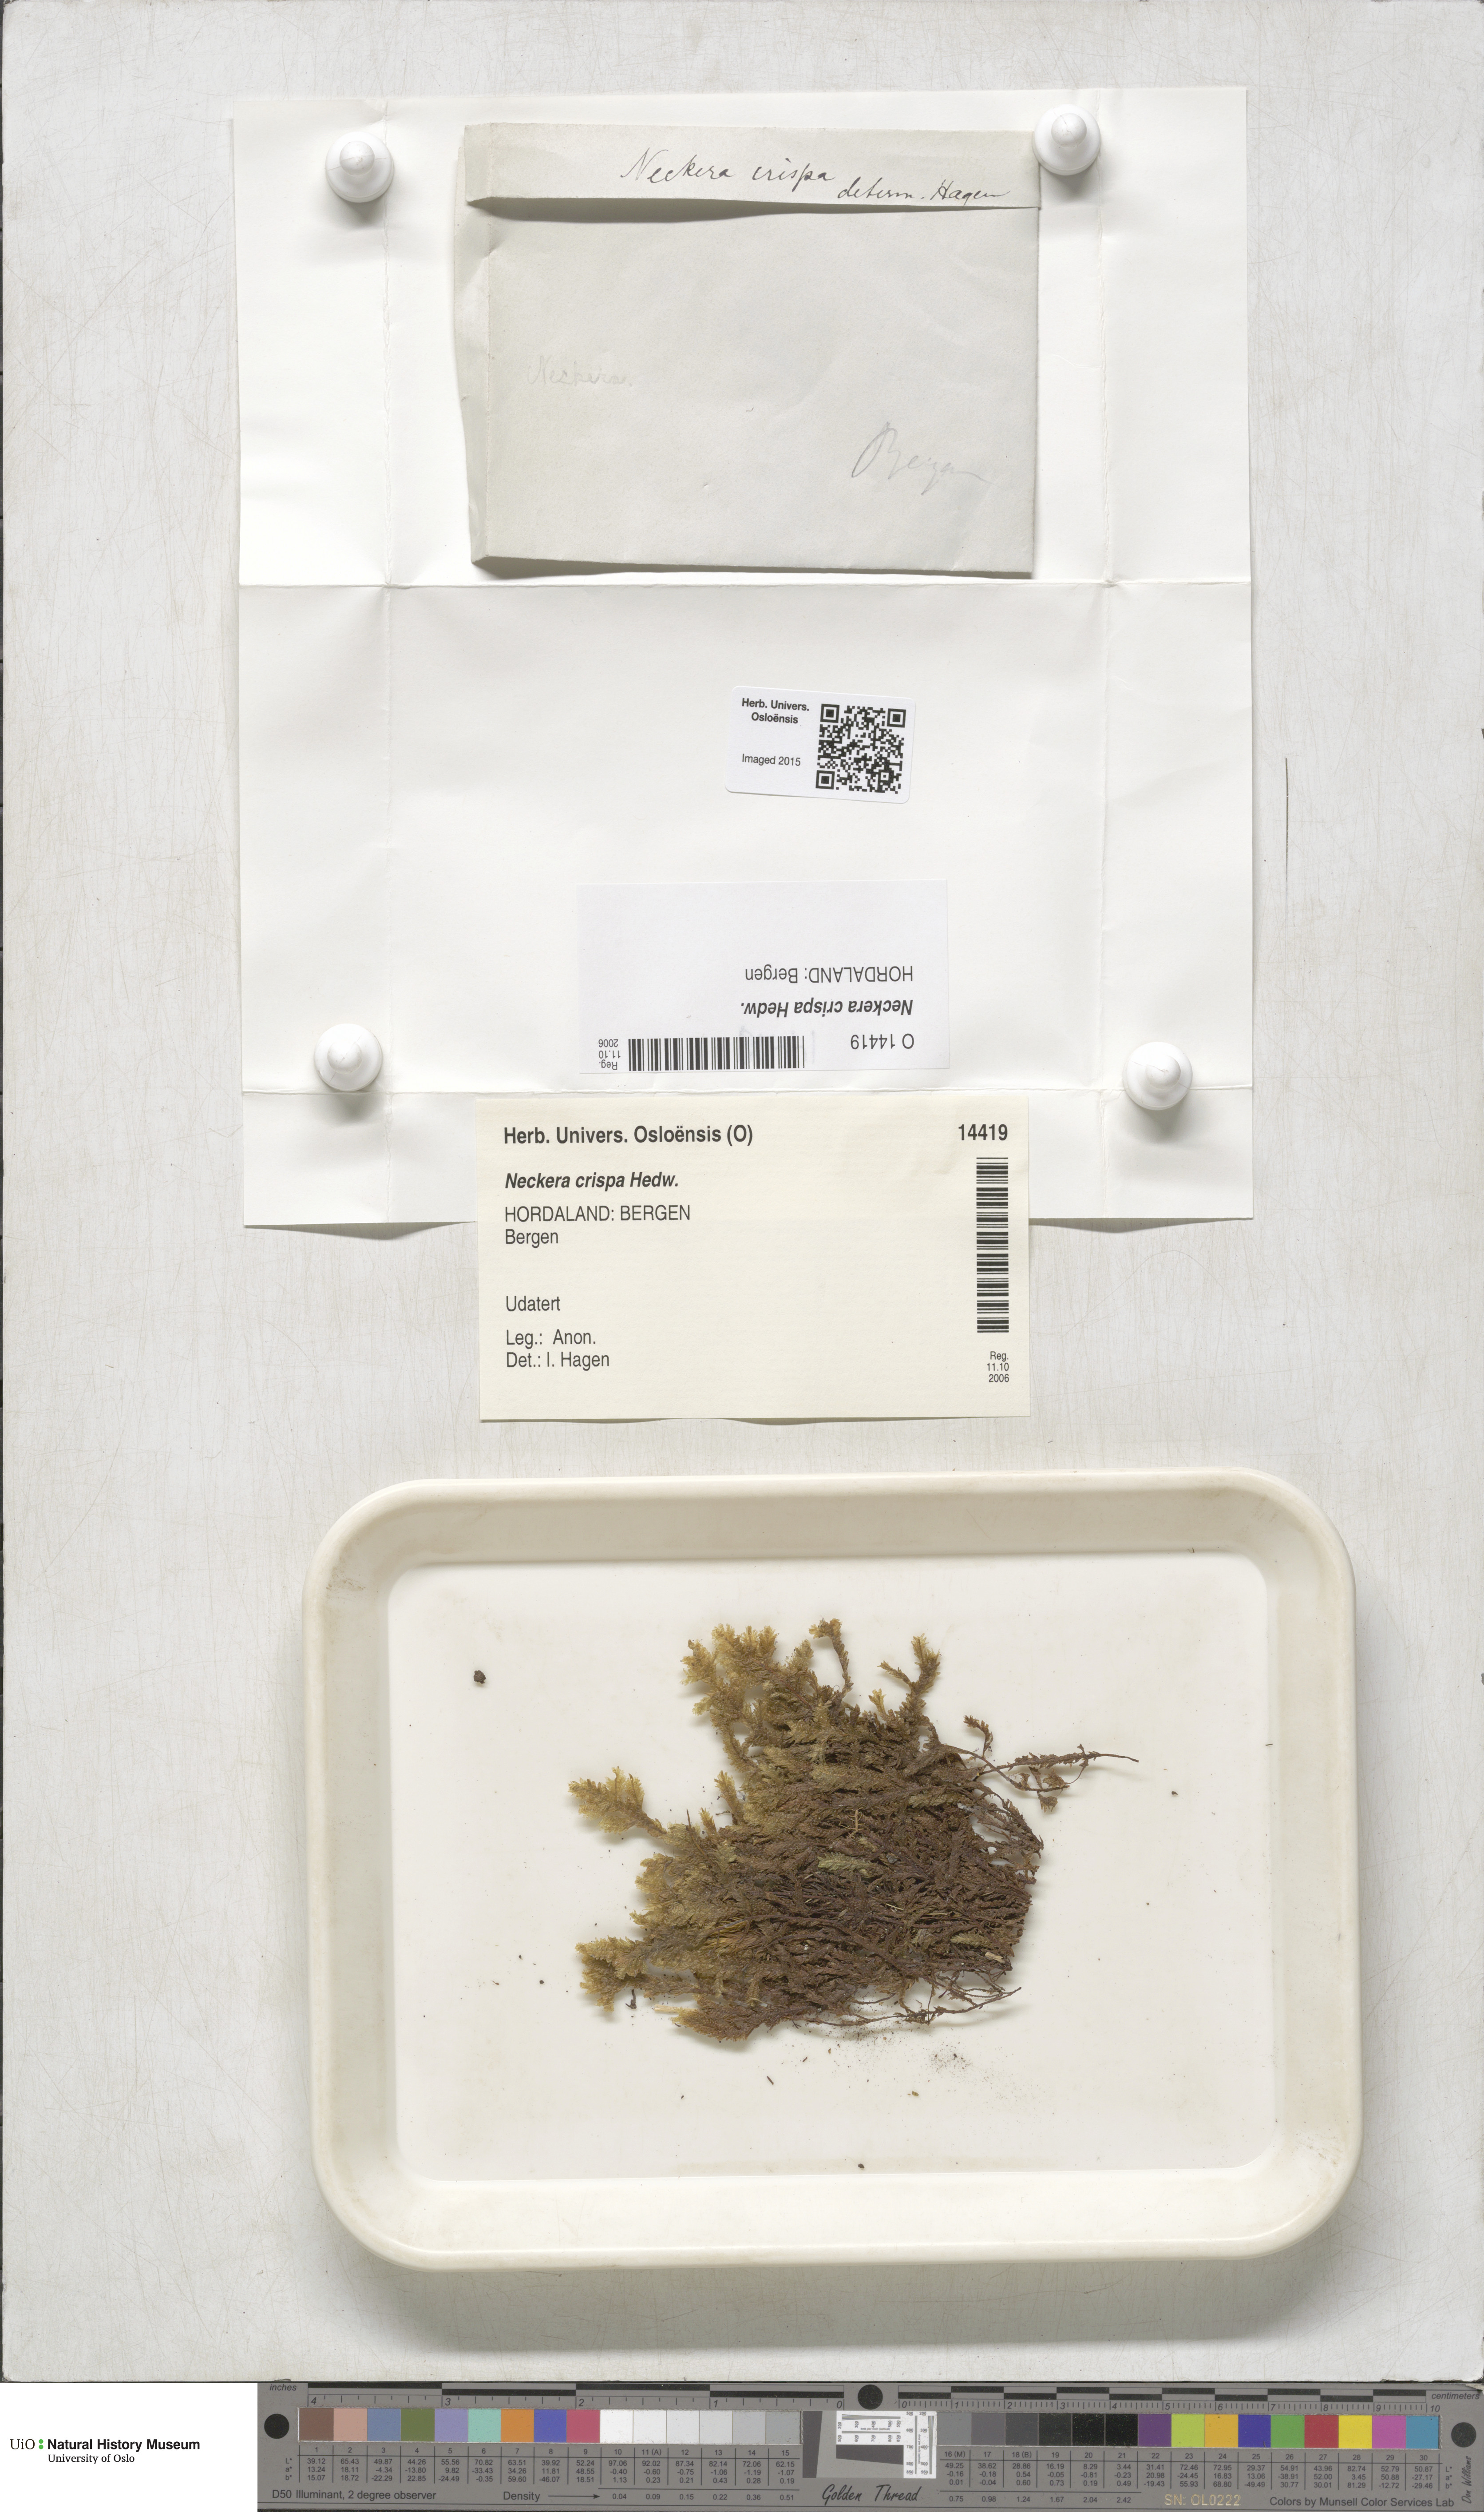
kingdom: Plantae
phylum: Bryophyta
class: Bryopsida
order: Hypnales
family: Neckeraceae
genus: Exsertotheca
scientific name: Exsertotheca crispa
